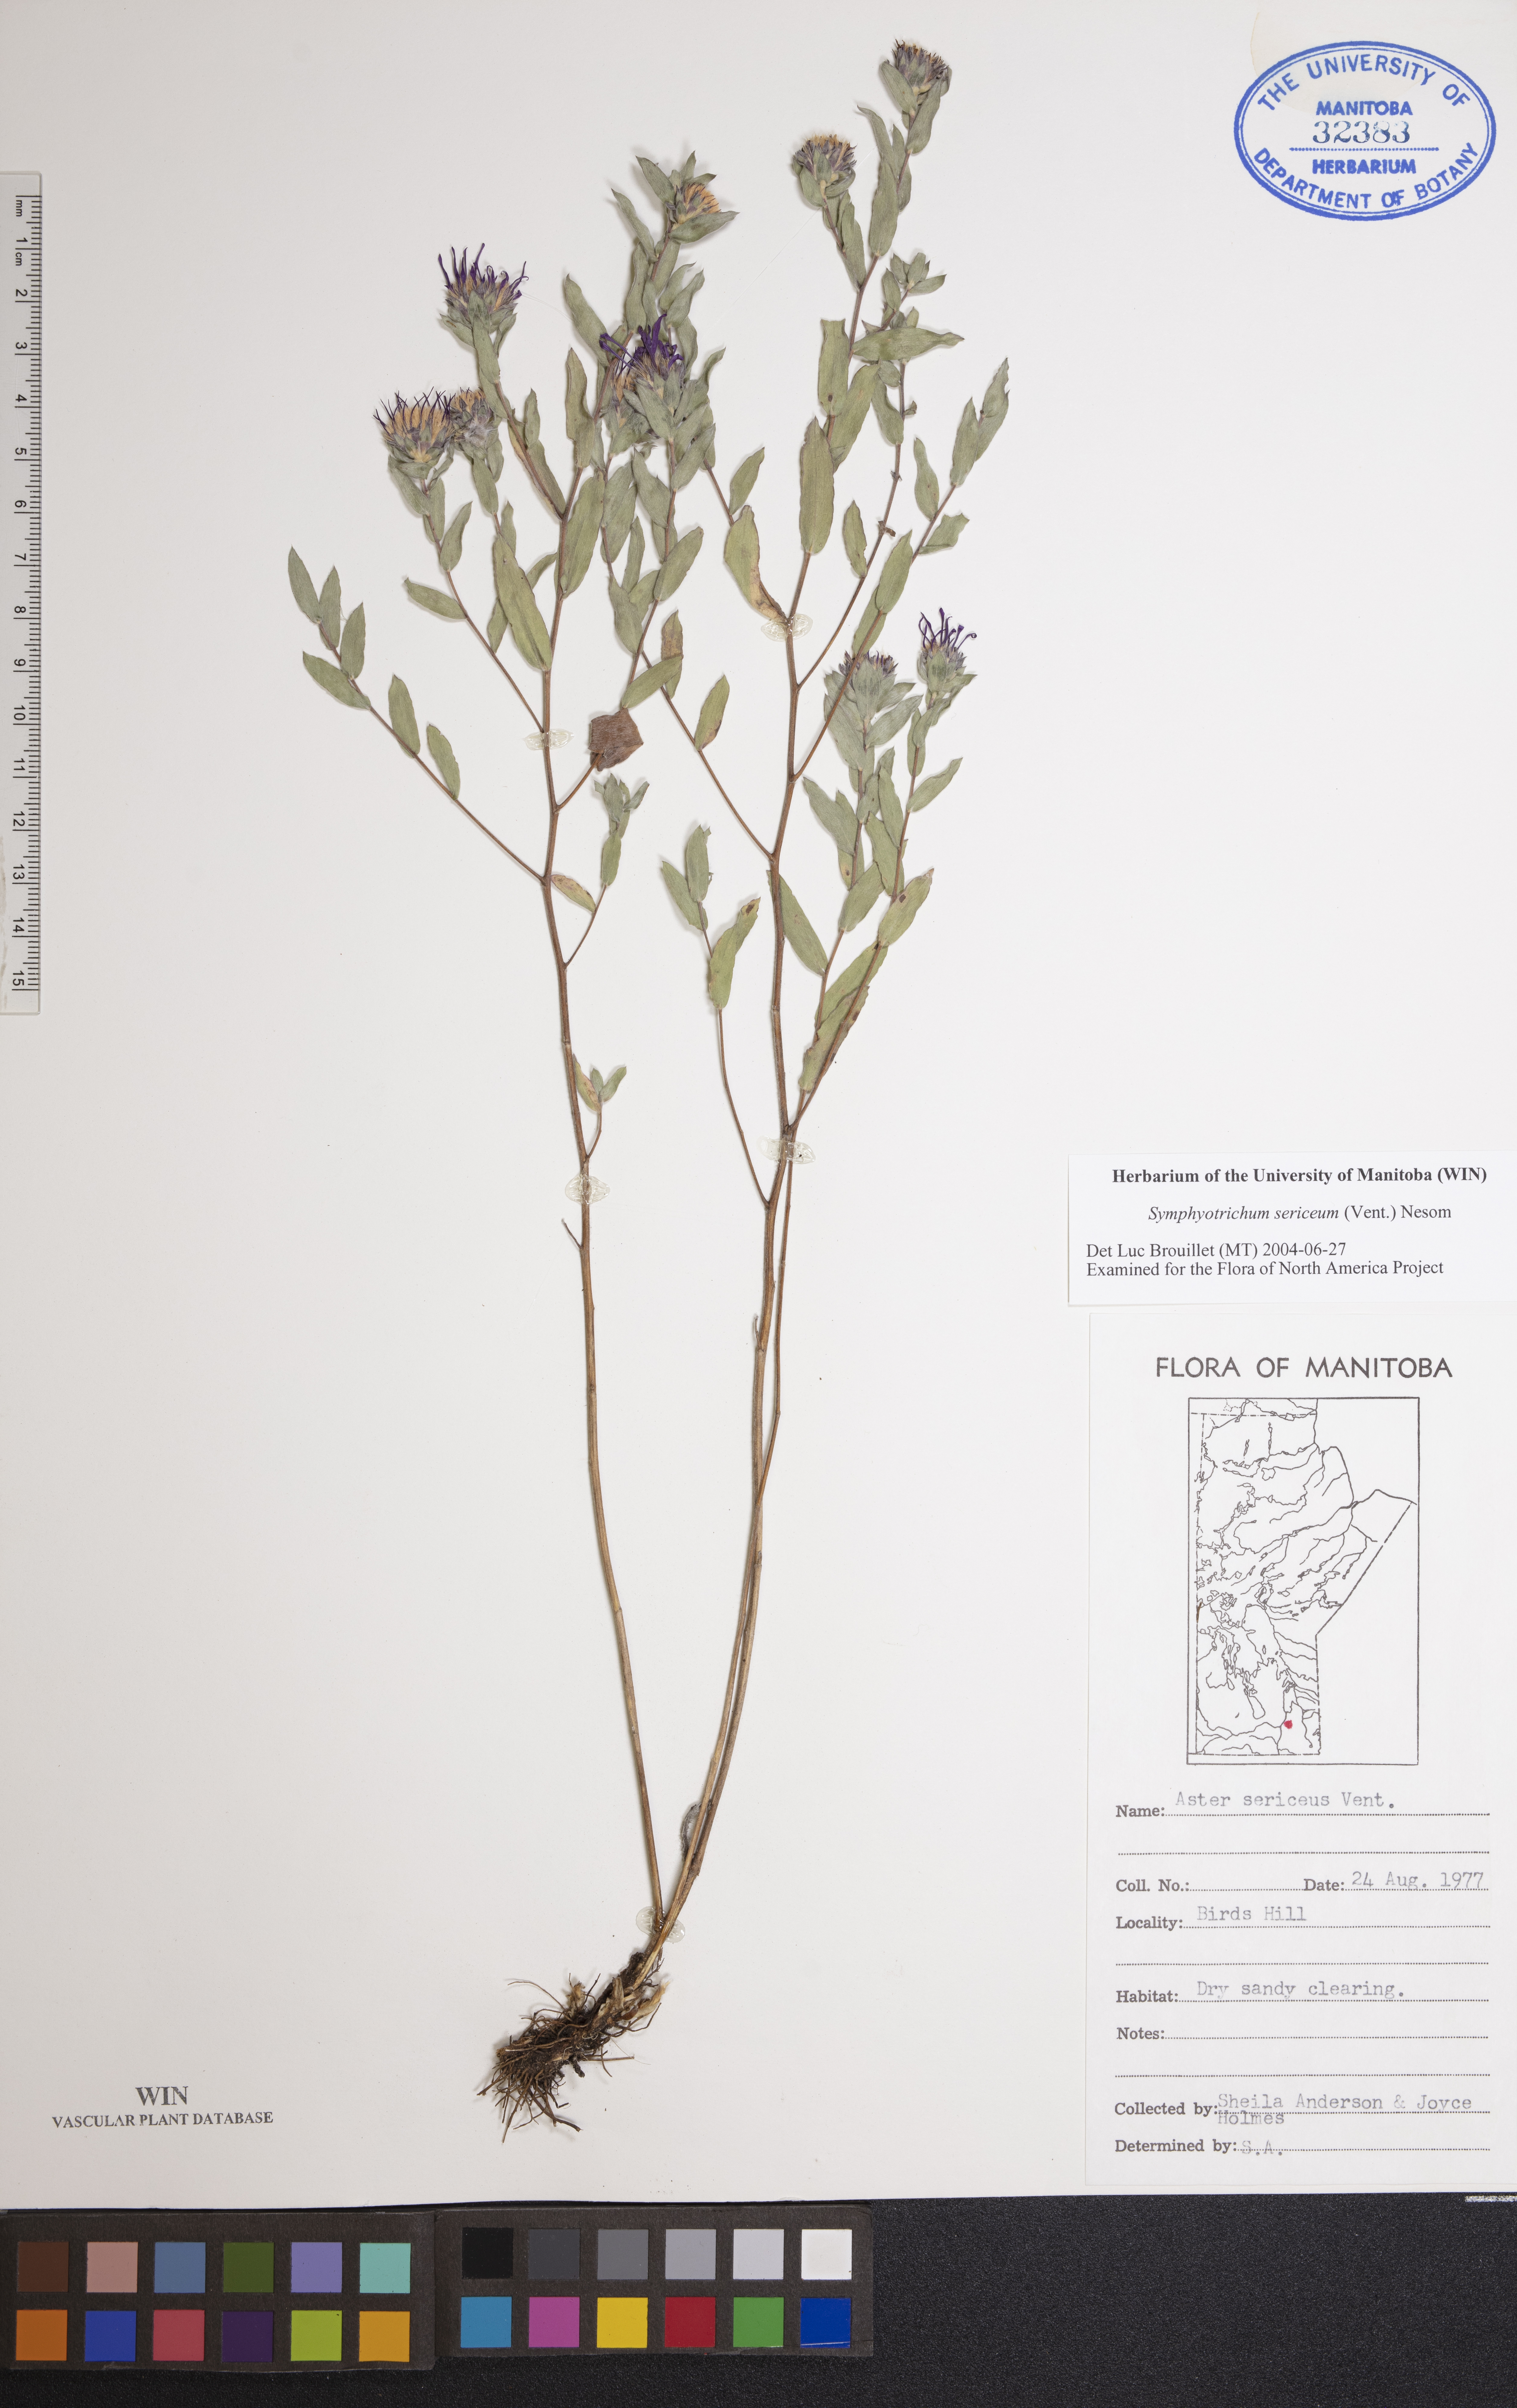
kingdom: Plantae
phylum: Tracheophyta
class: Magnoliopsida
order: Asterales
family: Asteraceae
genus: Symphyotrichum
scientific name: Symphyotrichum sericeum
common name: Silky aster
